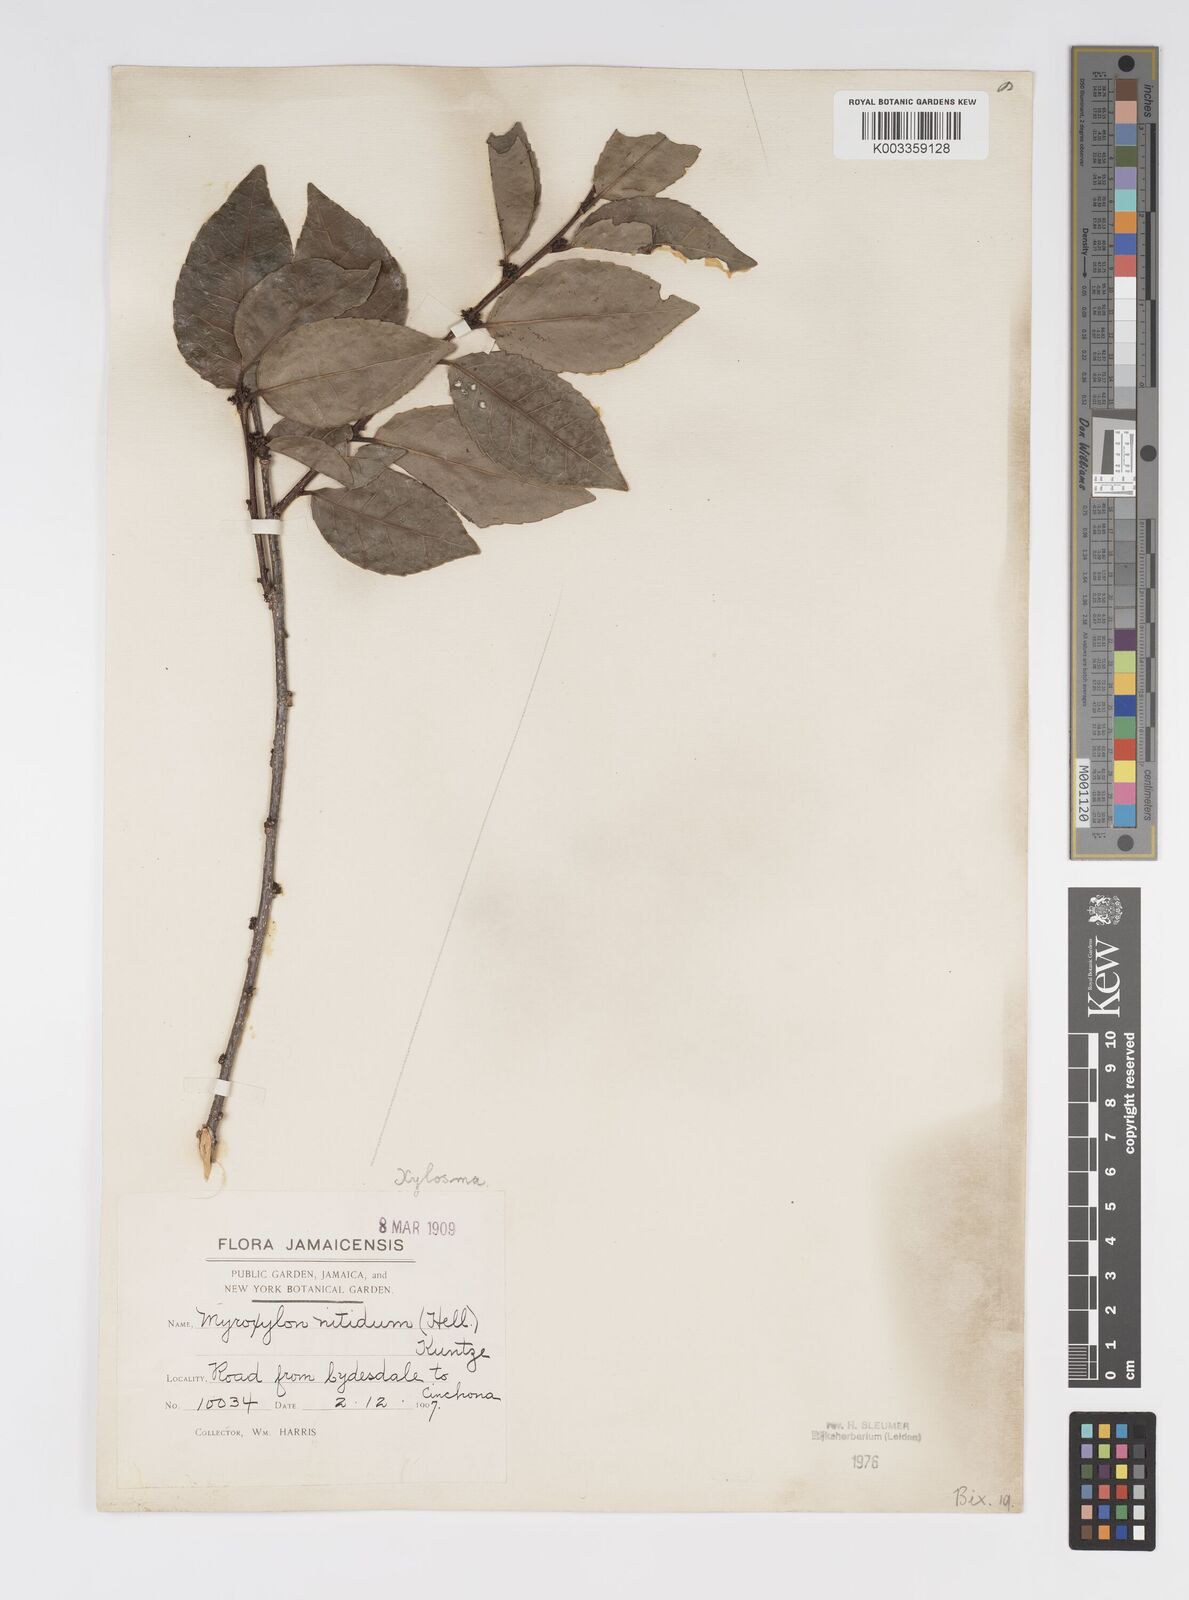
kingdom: Plantae
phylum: Tracheophyta
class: Magnoliopsida
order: Malpighiales
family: Salicaceae
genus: Xylosma
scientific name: Xylosma nitida
